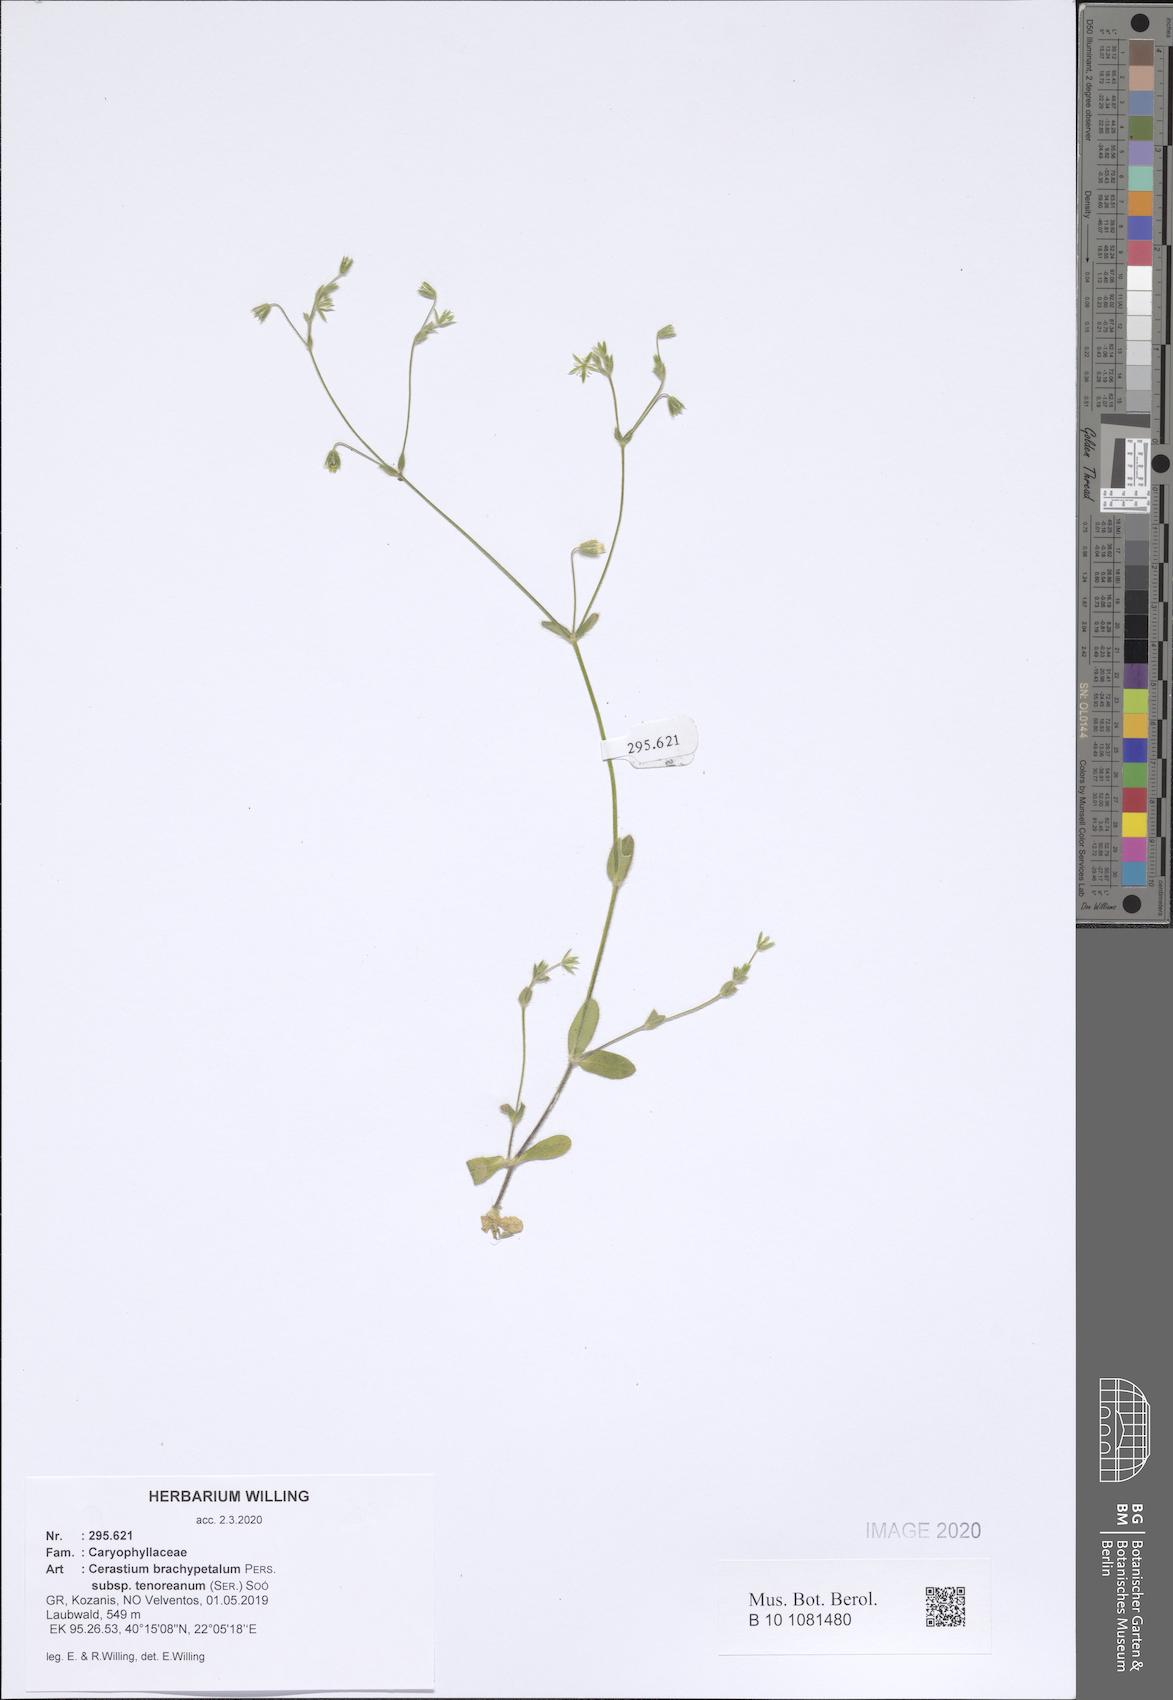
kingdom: Plantae
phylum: Tracheophyta
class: Magnoliopsida
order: Caryophyllales
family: Caryophyllaceae
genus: Cerastium
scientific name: Cerastium tenoreanum
